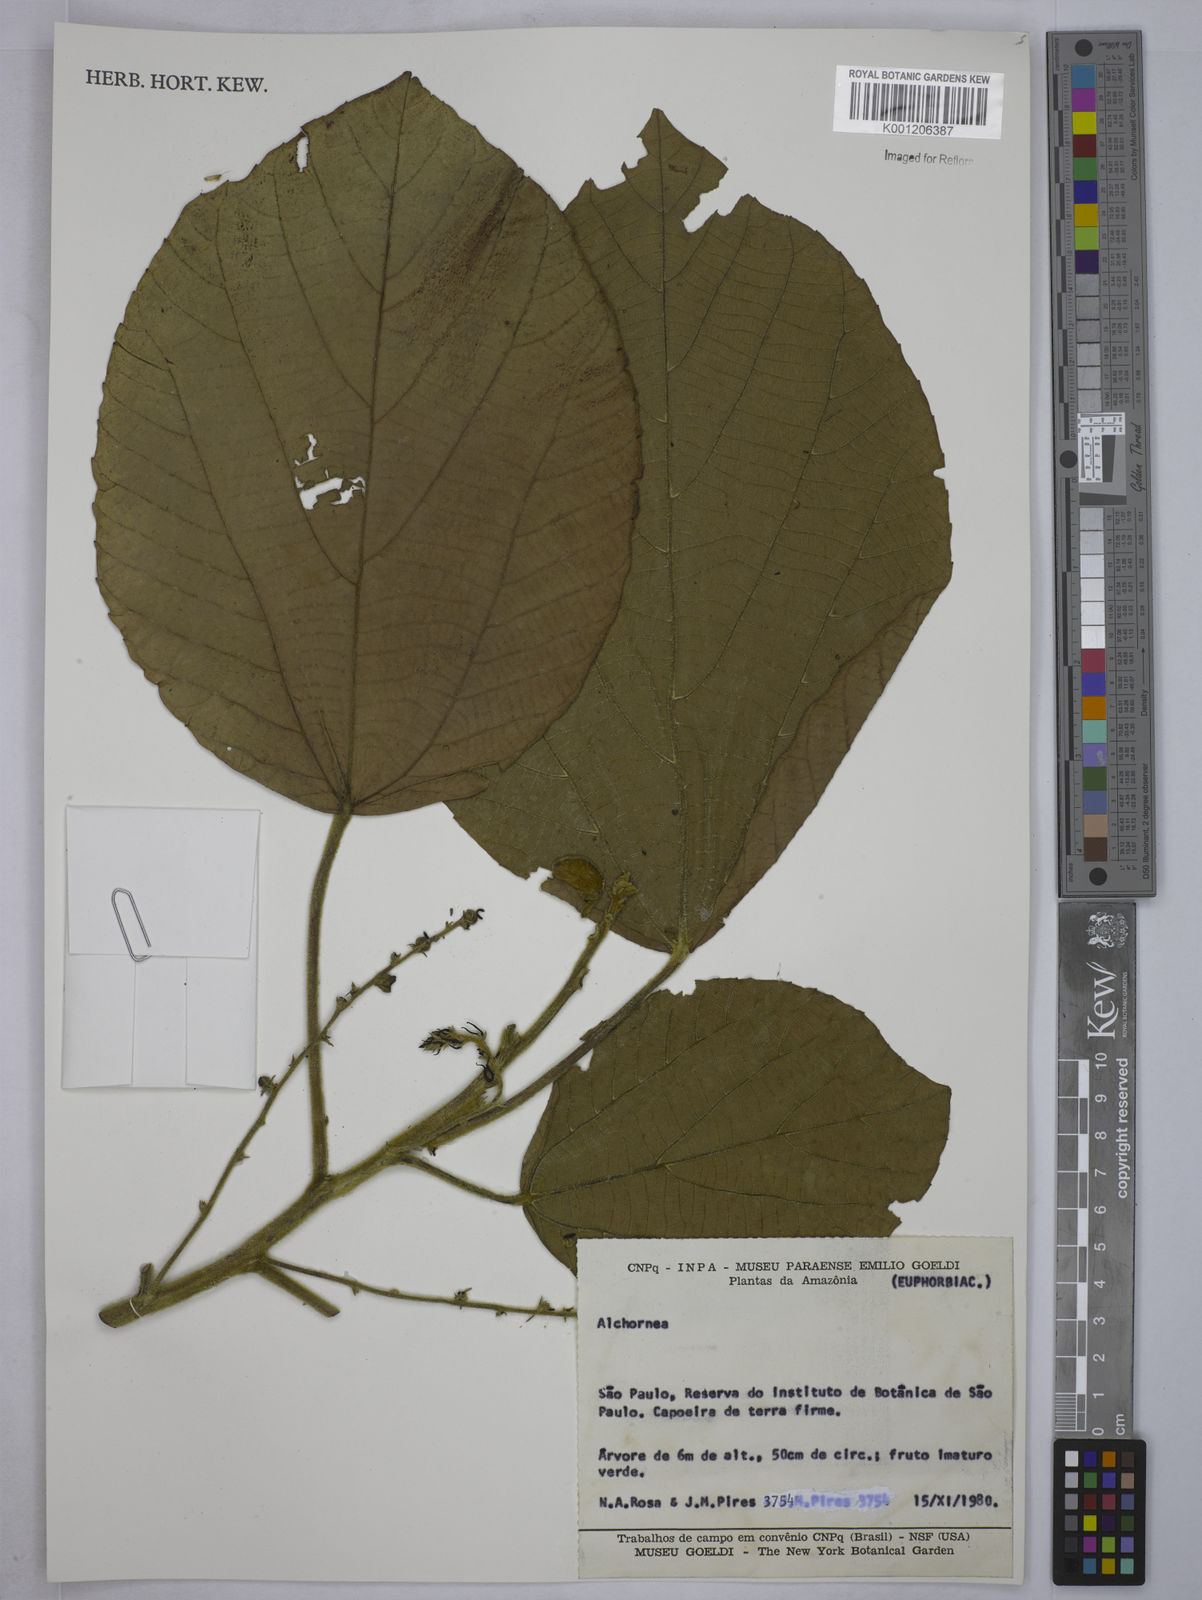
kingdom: Plantae
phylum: Tracheophyta
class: Magnoliopsida
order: Malpighiales
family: Euphorbiaceae
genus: Alchornea
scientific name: Alchornea
